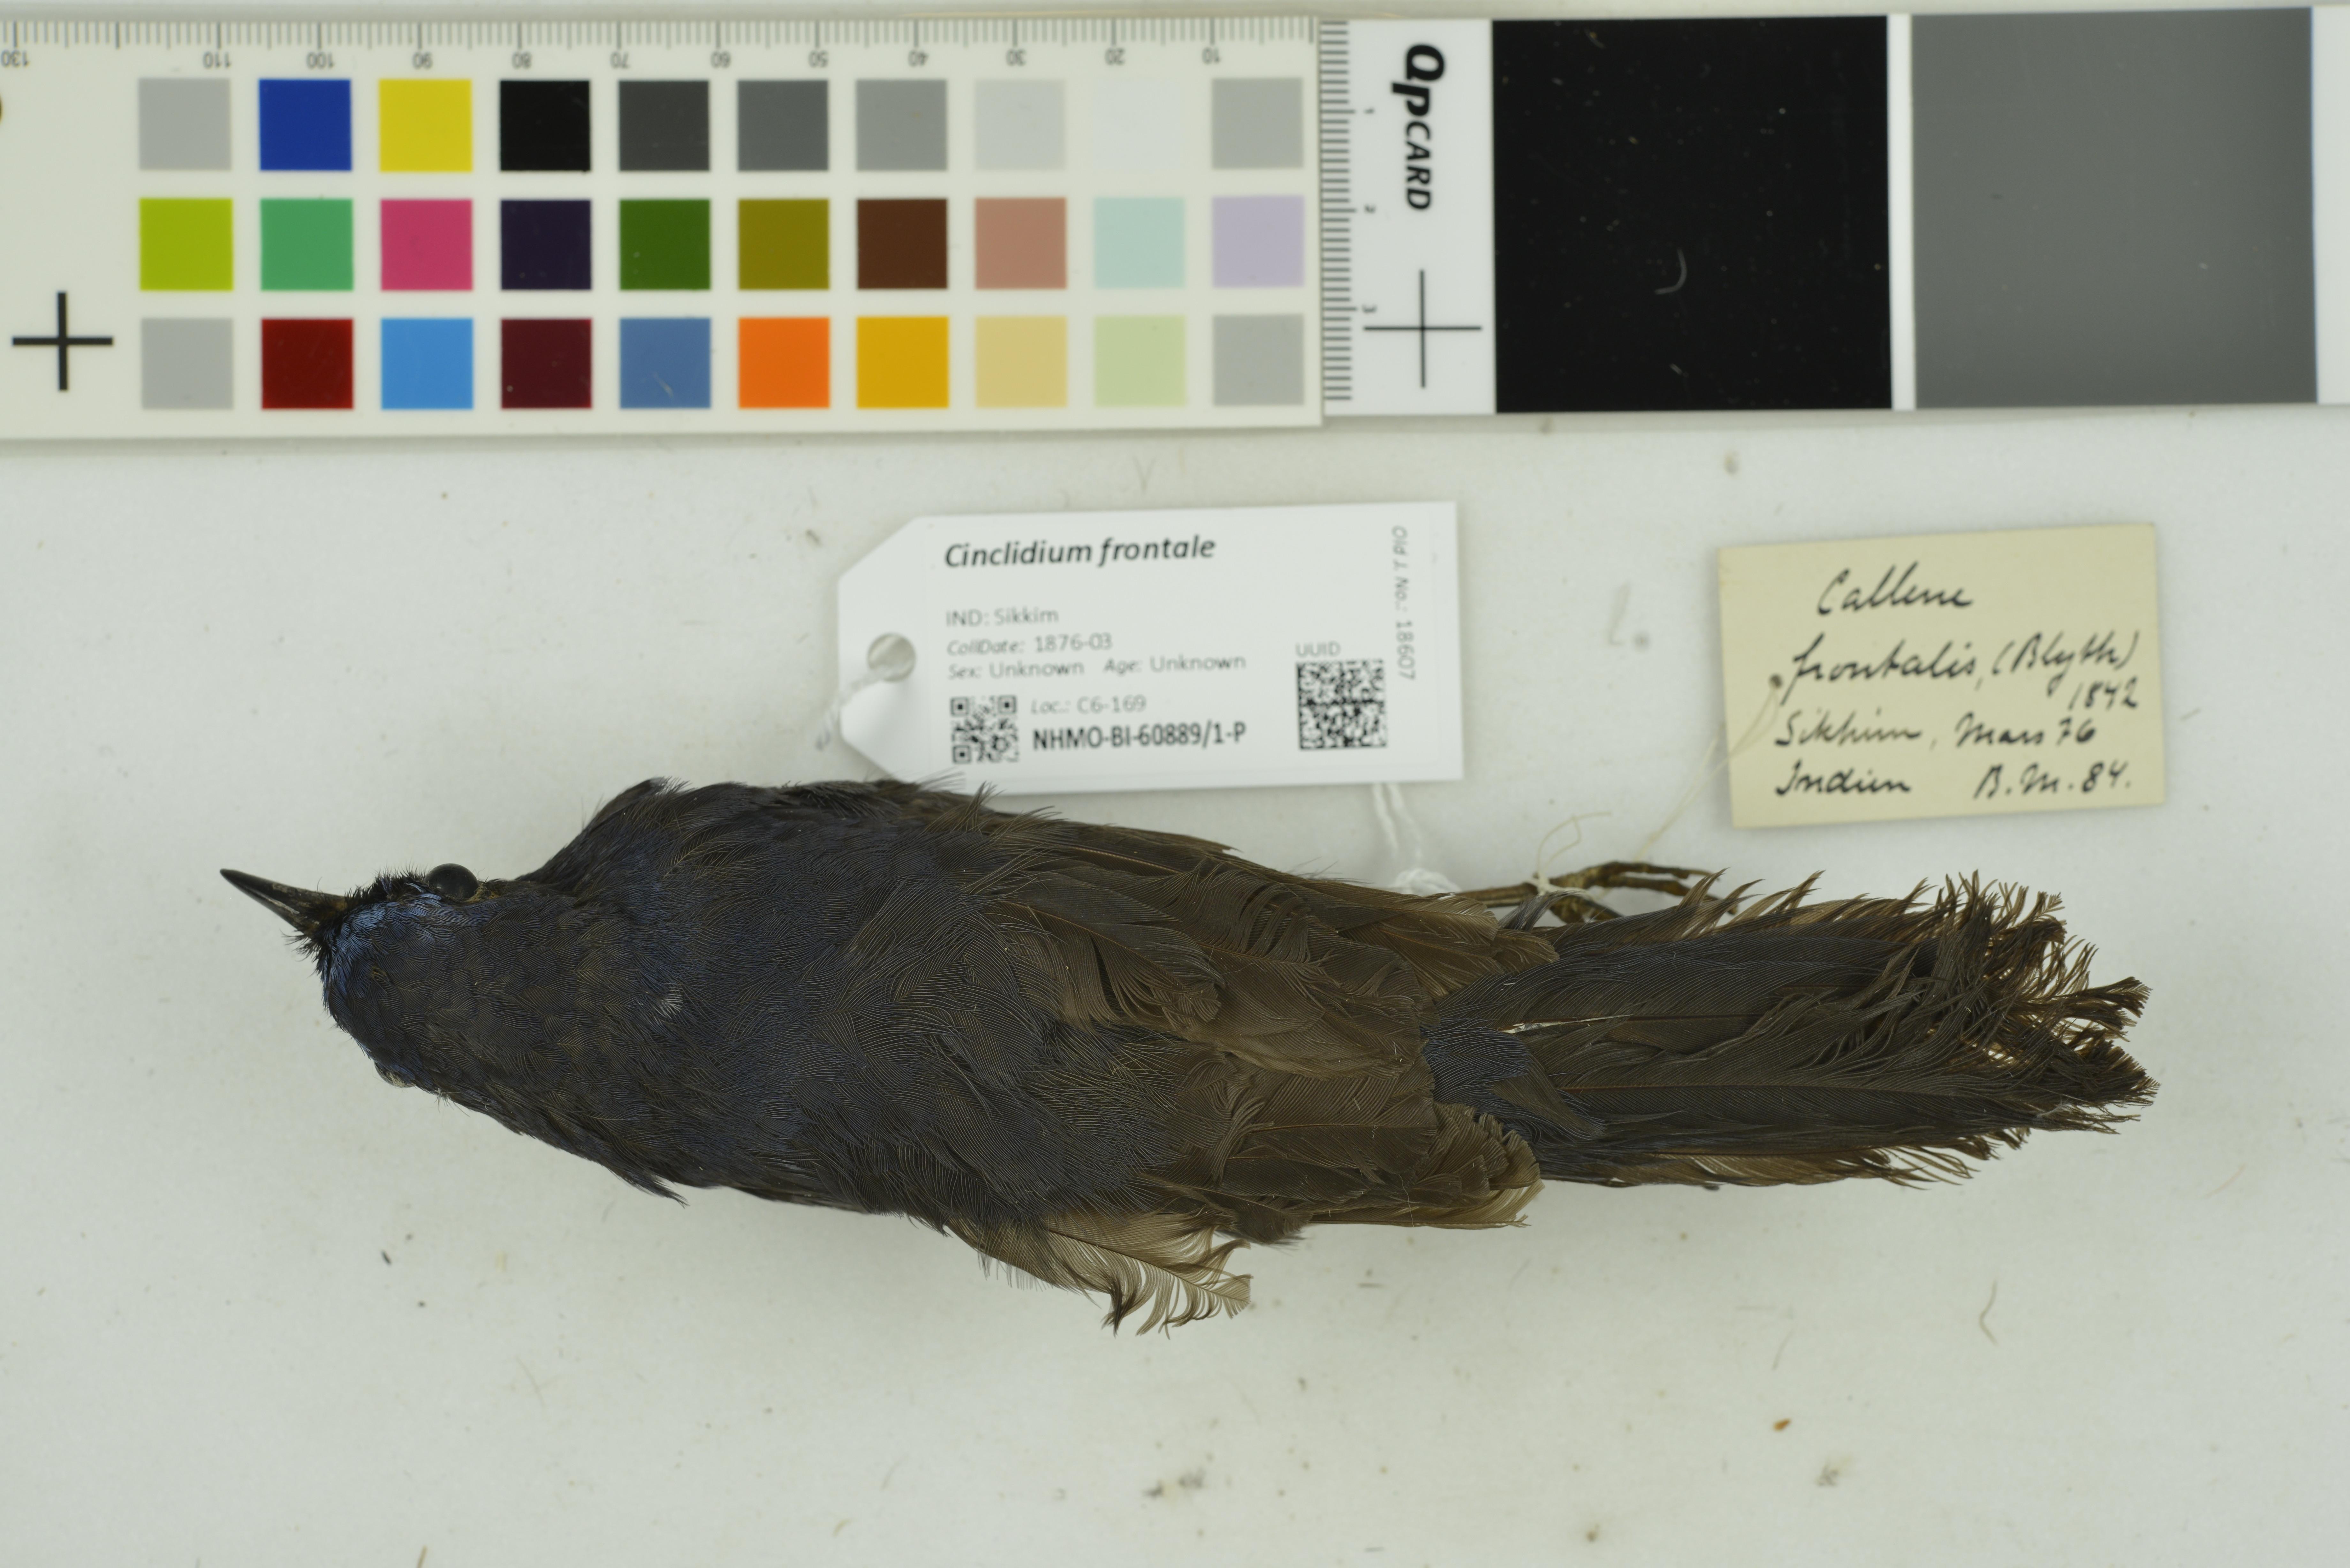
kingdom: Animalia
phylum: Chordata
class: Aves
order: Passeriformes
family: Muscicapidae
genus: Cinclidium
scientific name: Cinclidium frontale
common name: Blue-fronted robin
